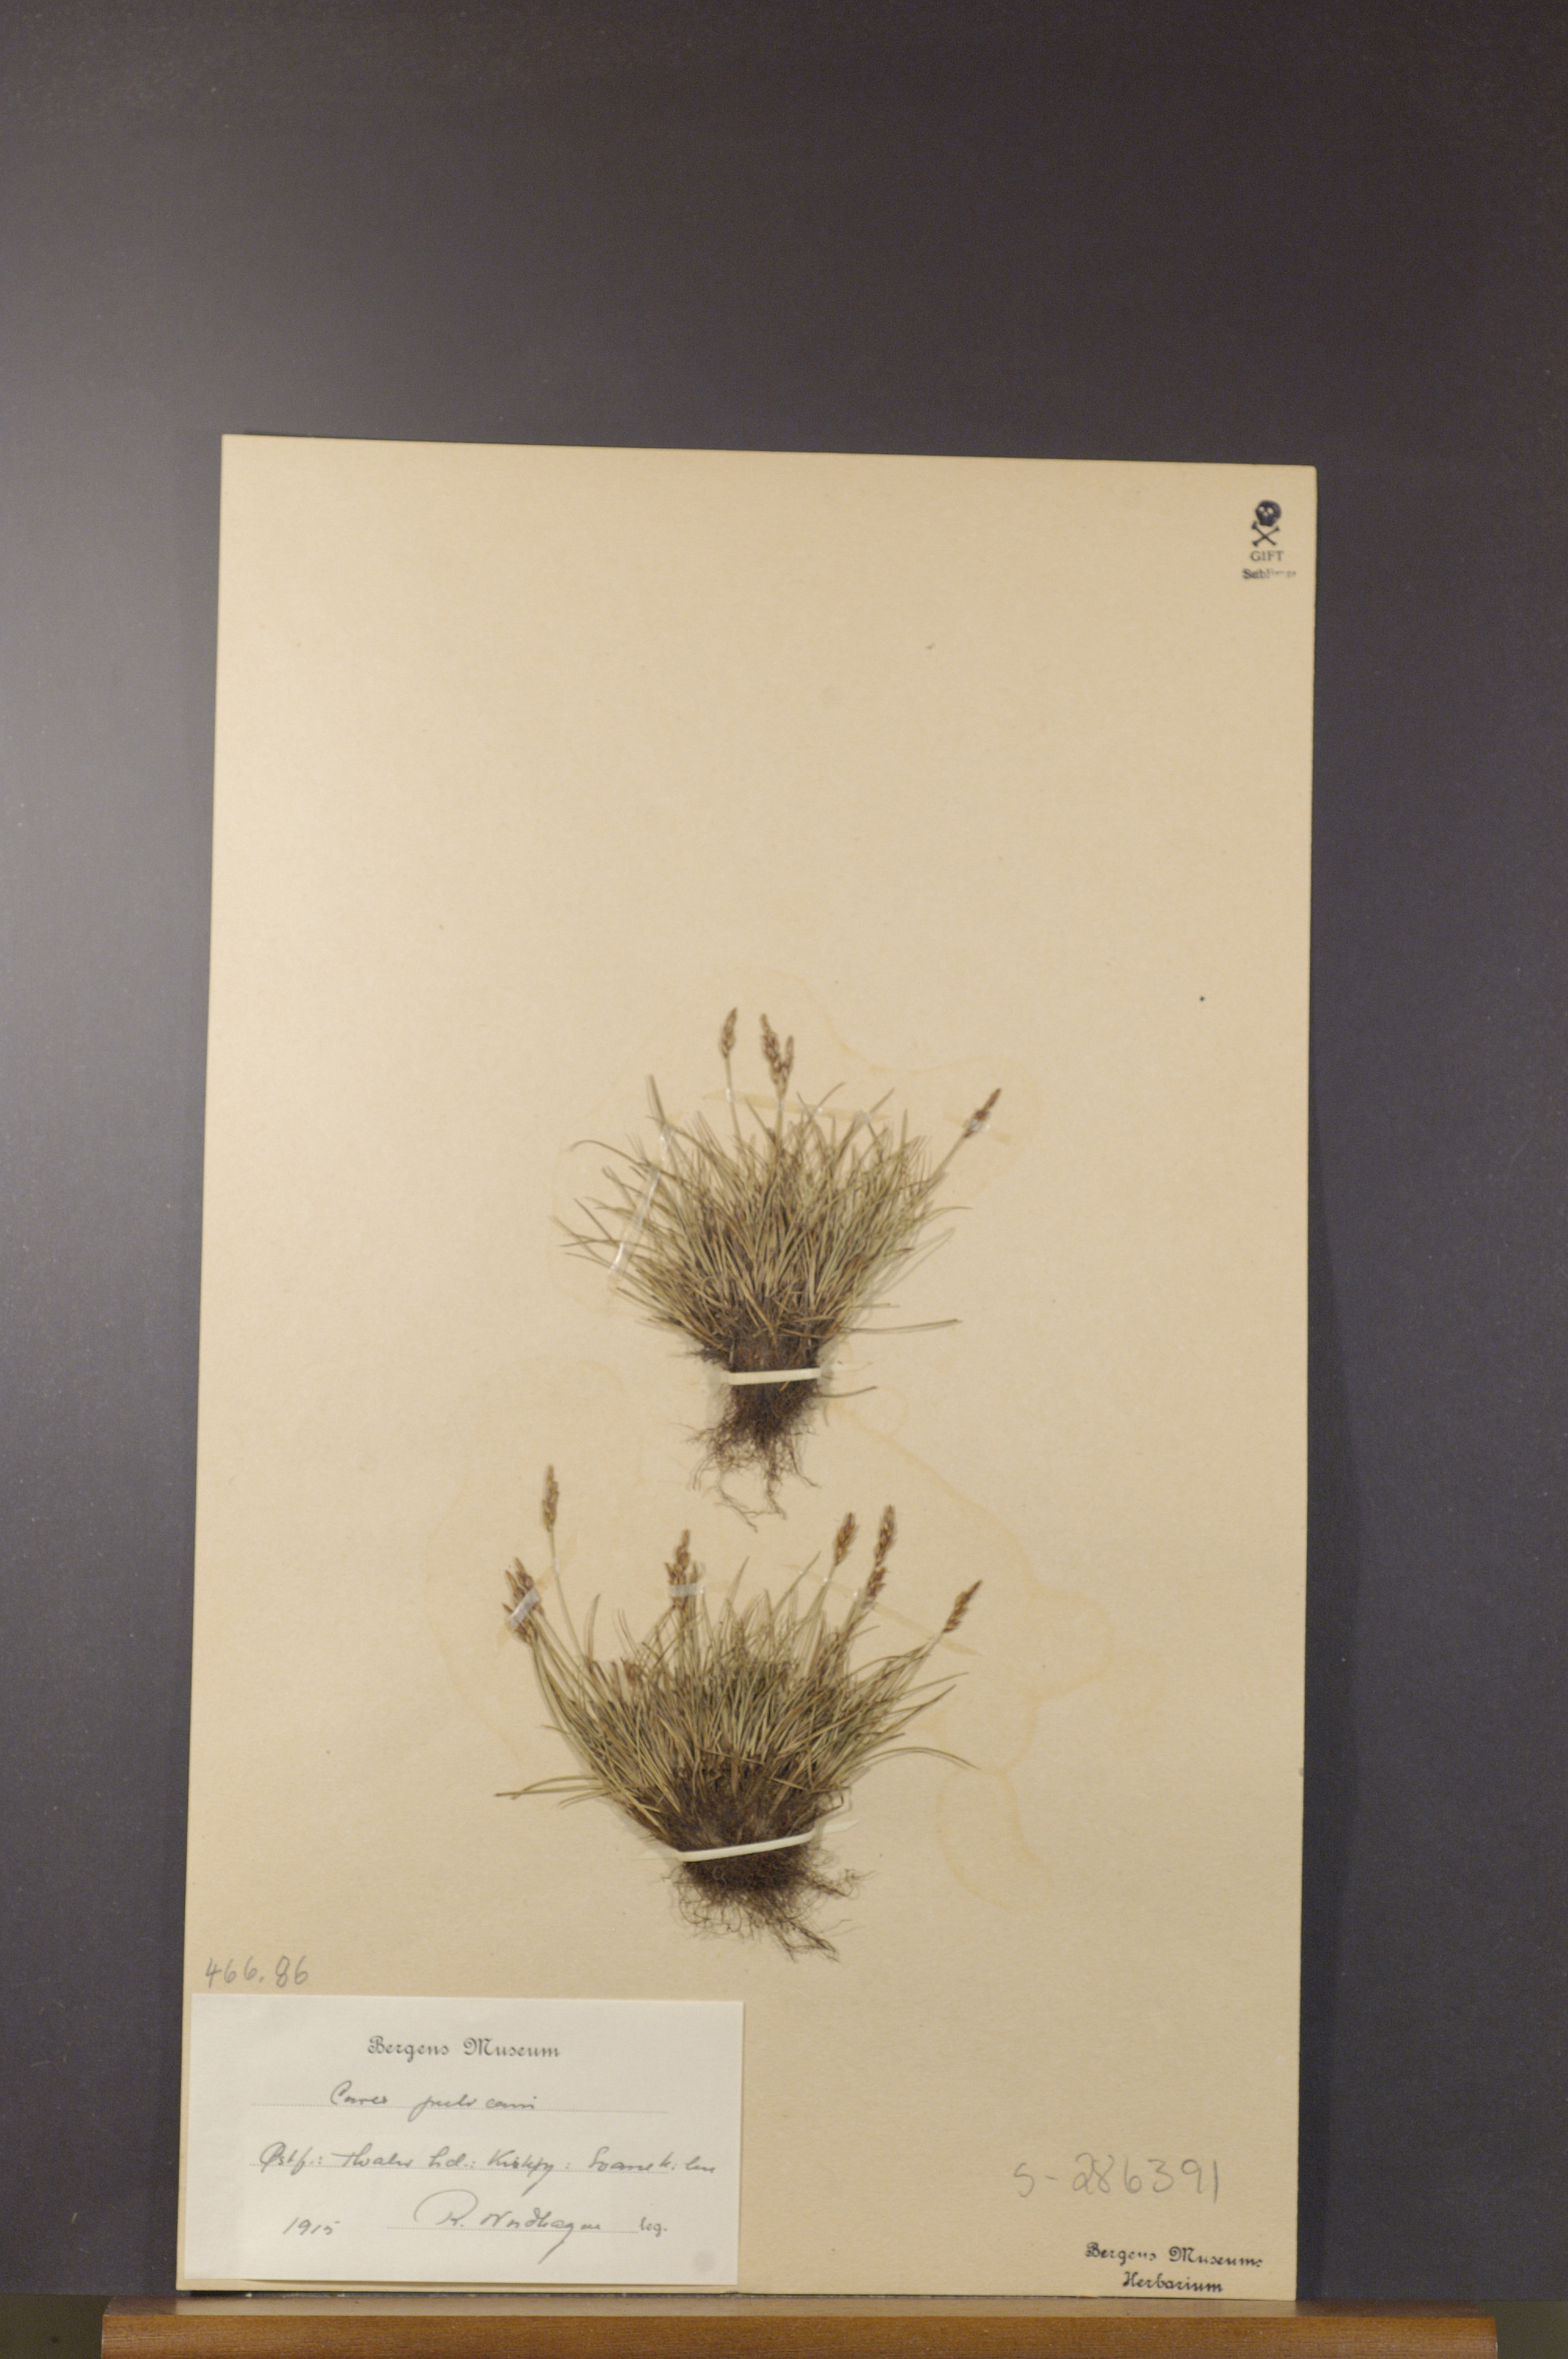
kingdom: Plantae
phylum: Tracheophyta
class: Liliopsida
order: Poales
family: Cyperaceae
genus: Carex
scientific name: Carex pulicaris
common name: Flea sedge
